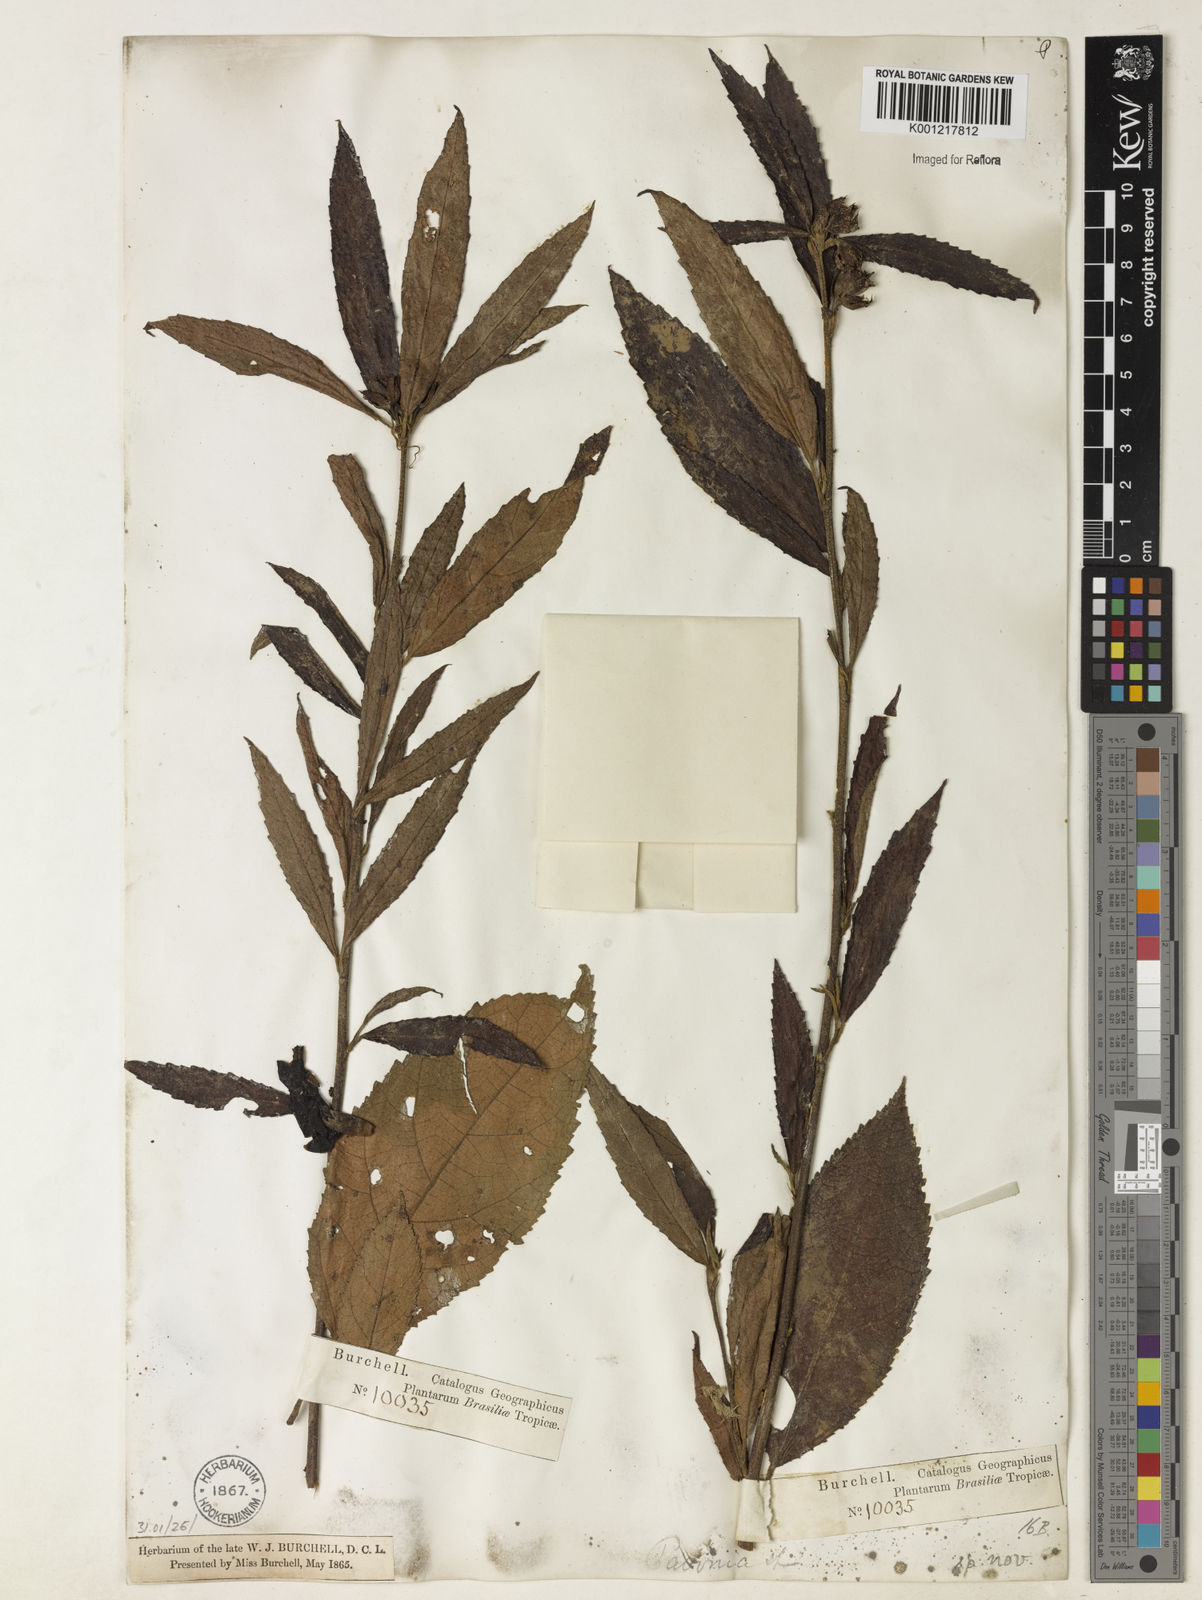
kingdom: Plantae
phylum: Tracheophyta
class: Magnoliopsida
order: Malvales
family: Malvaceae
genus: Pavonia
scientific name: Pavonia
